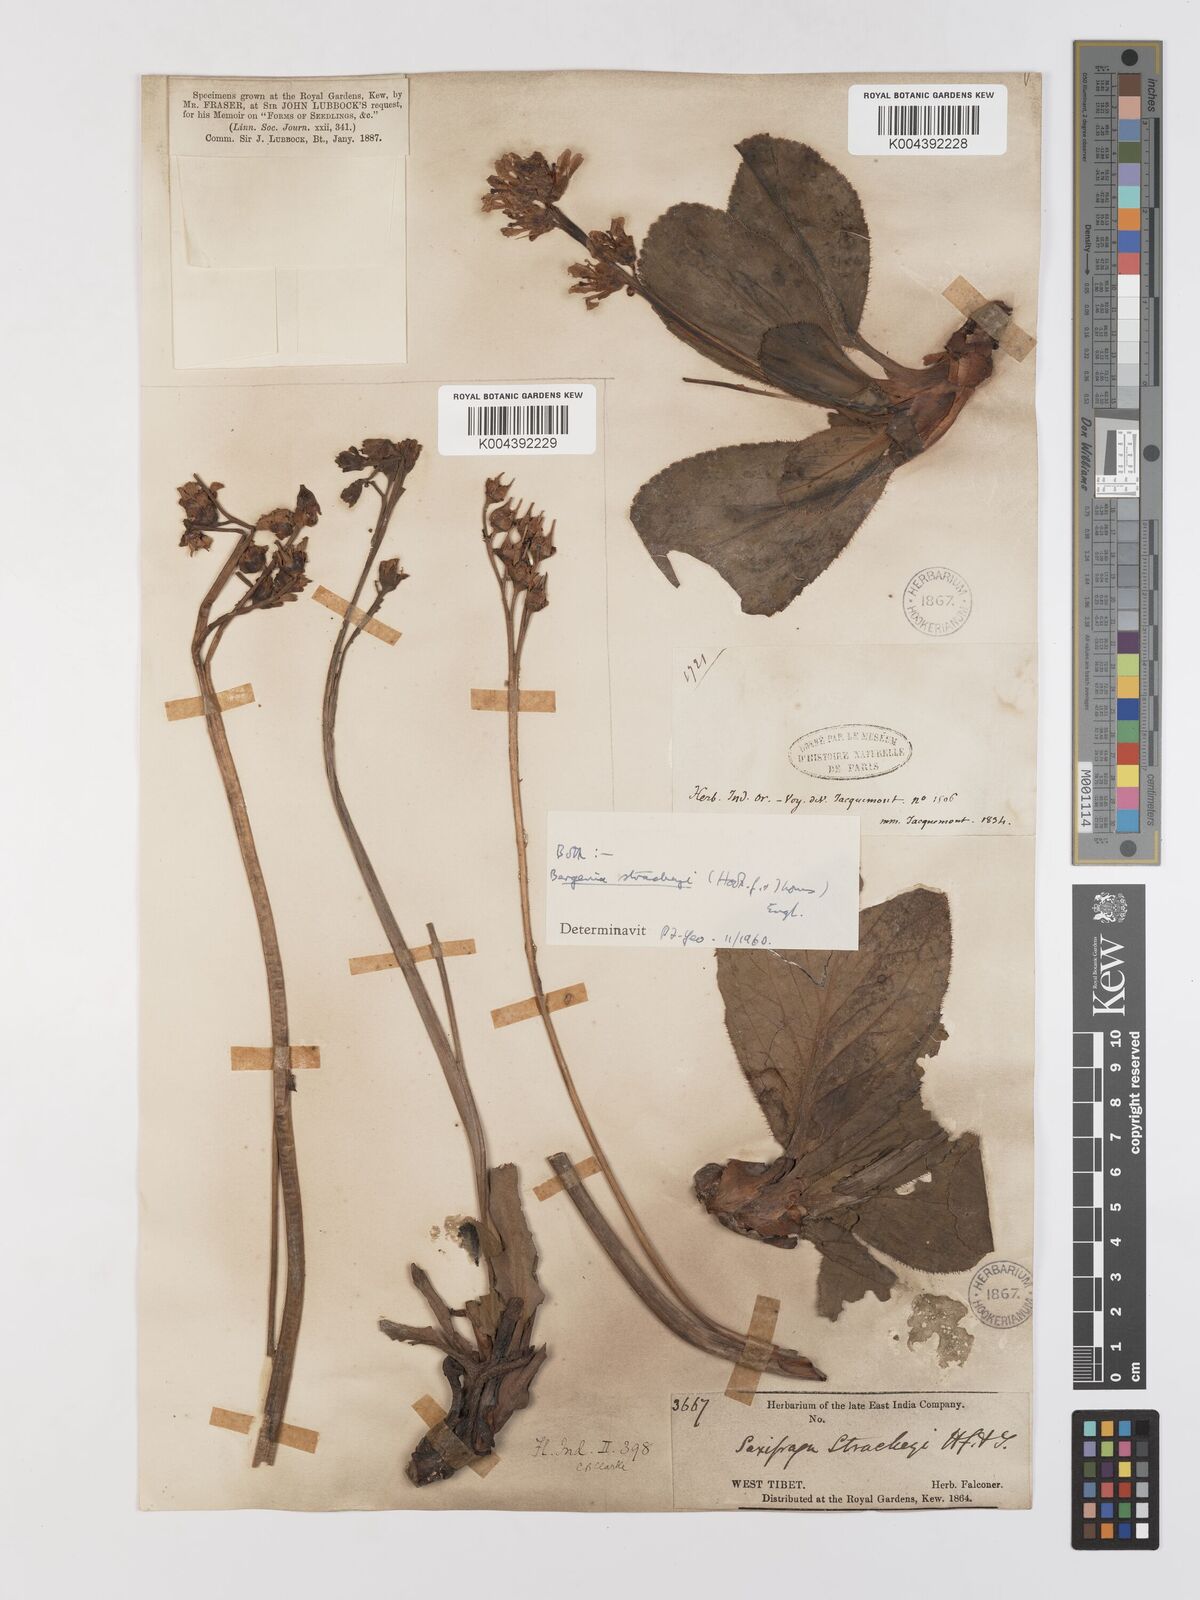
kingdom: Plantae
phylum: Tracheophyta
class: Magnoliopsida
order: Saxifragales
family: Saxifragaceae
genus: Bergenia
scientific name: Bergenia stracheyi
